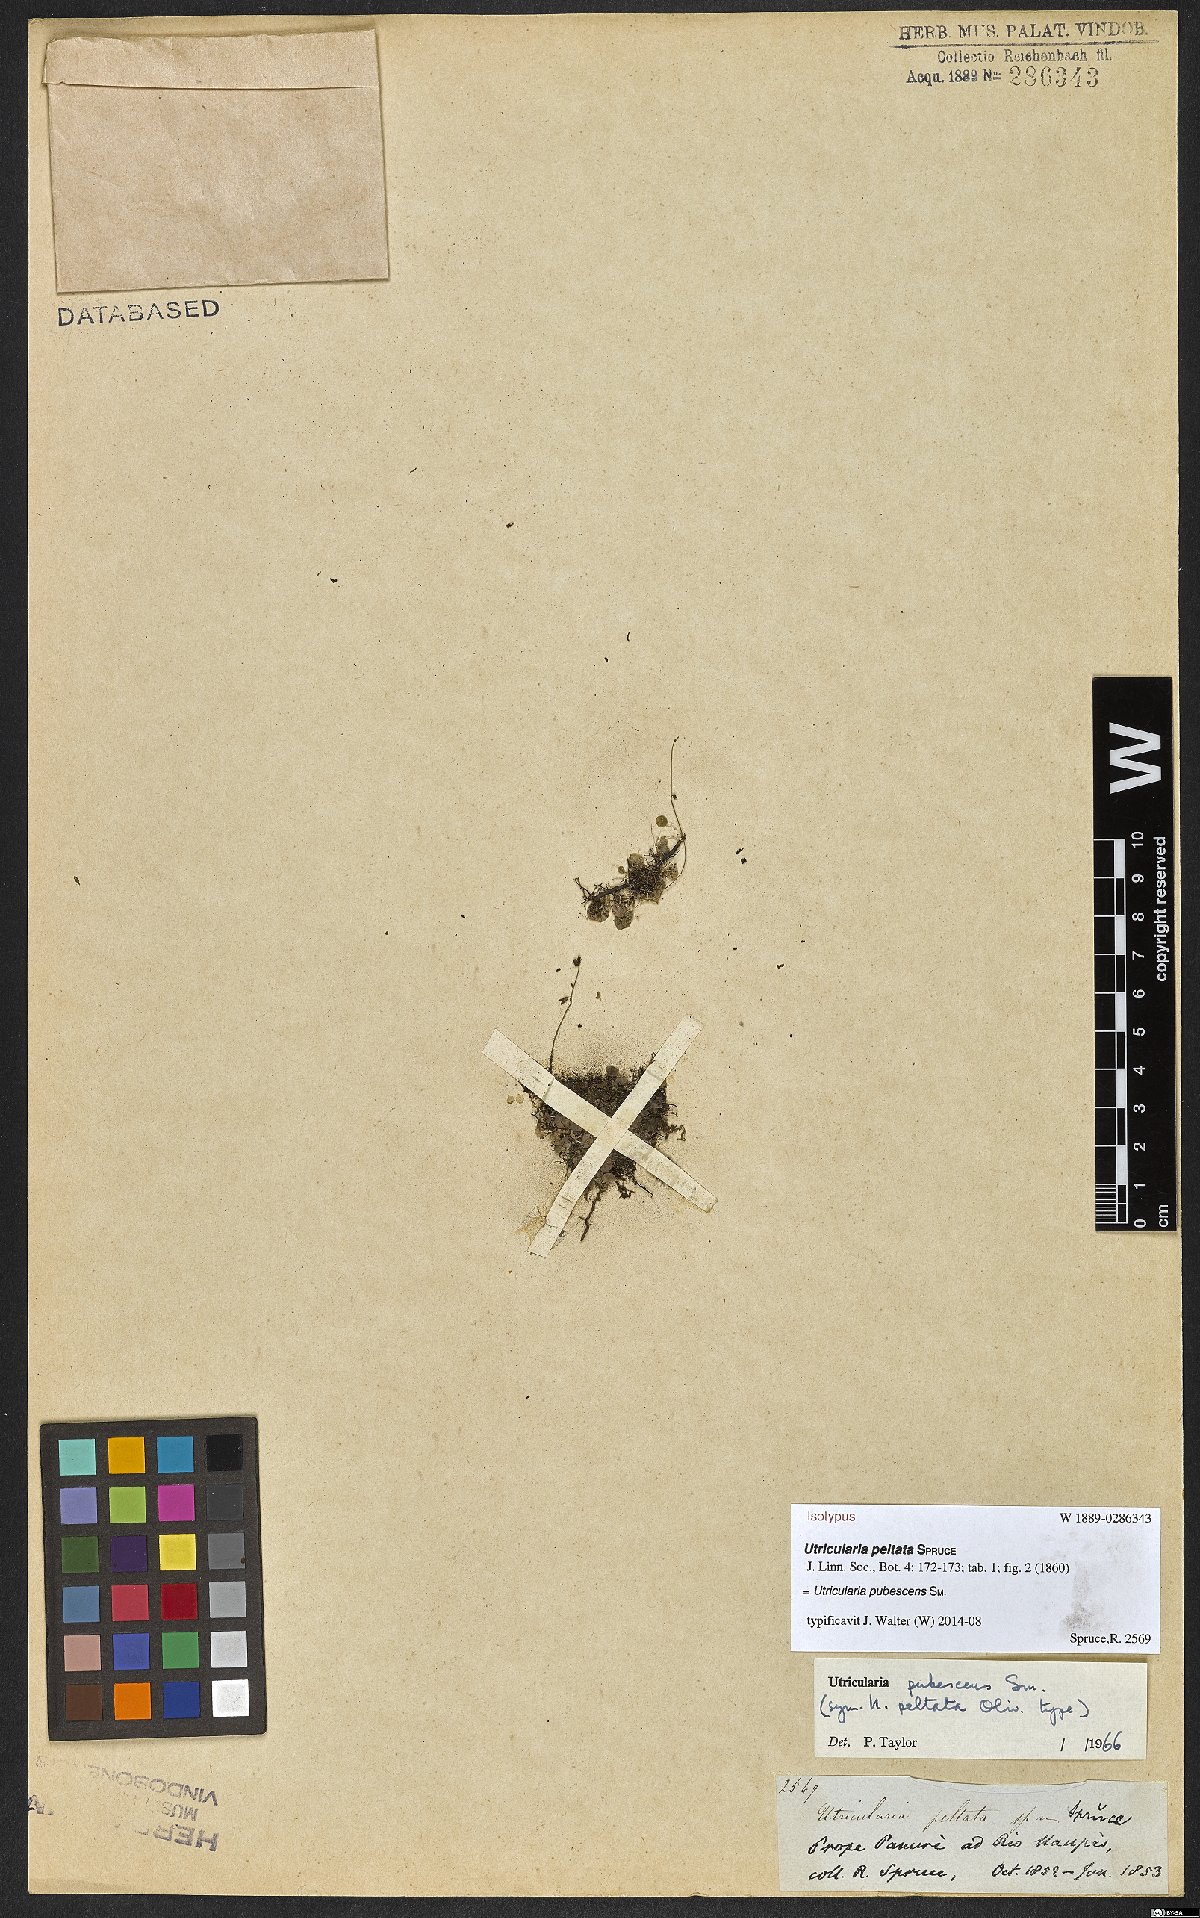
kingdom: Plantae
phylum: Tracheophyta
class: Magnoliopsida
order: Lamiales
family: Lentibulariaceae
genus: Utricularia
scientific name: Utricularia pubescens
